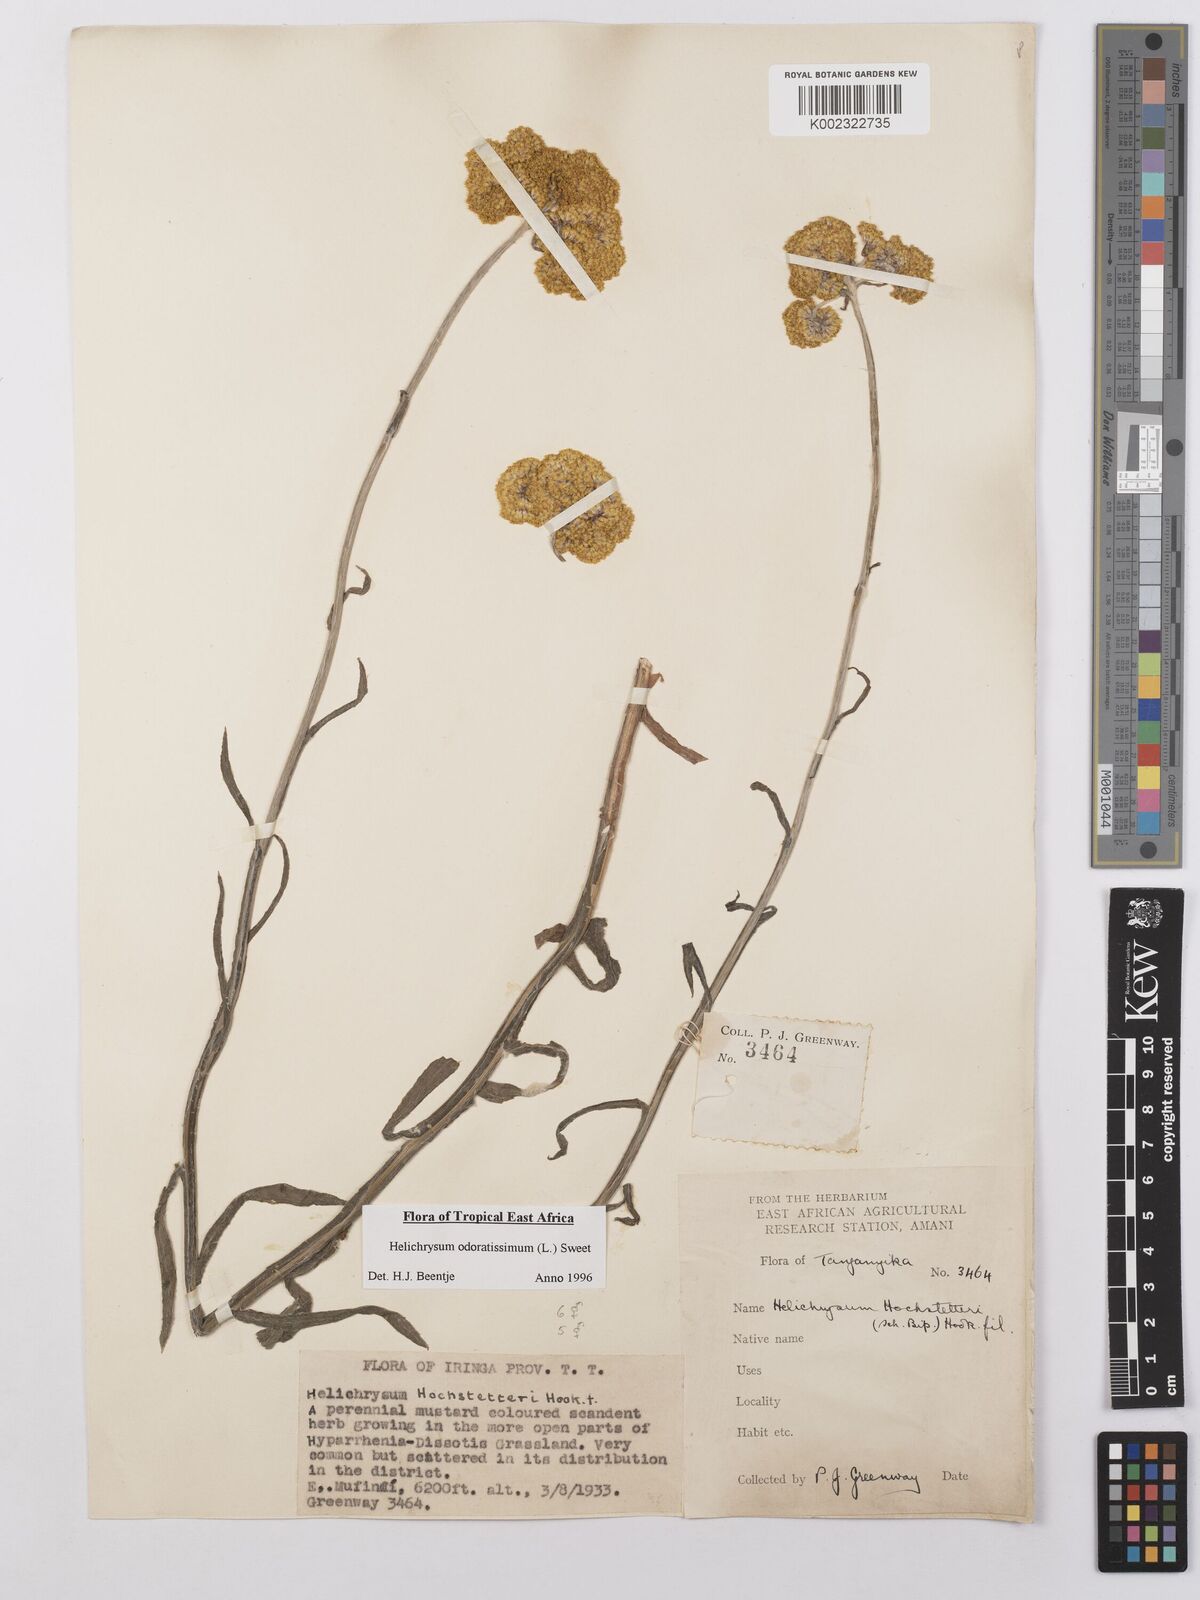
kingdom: Plantae
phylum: Tracheophyta
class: Magnoliopsida
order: Asterales
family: Asteraceae
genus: Helichrysum
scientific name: Helichrysum odoratissimum
